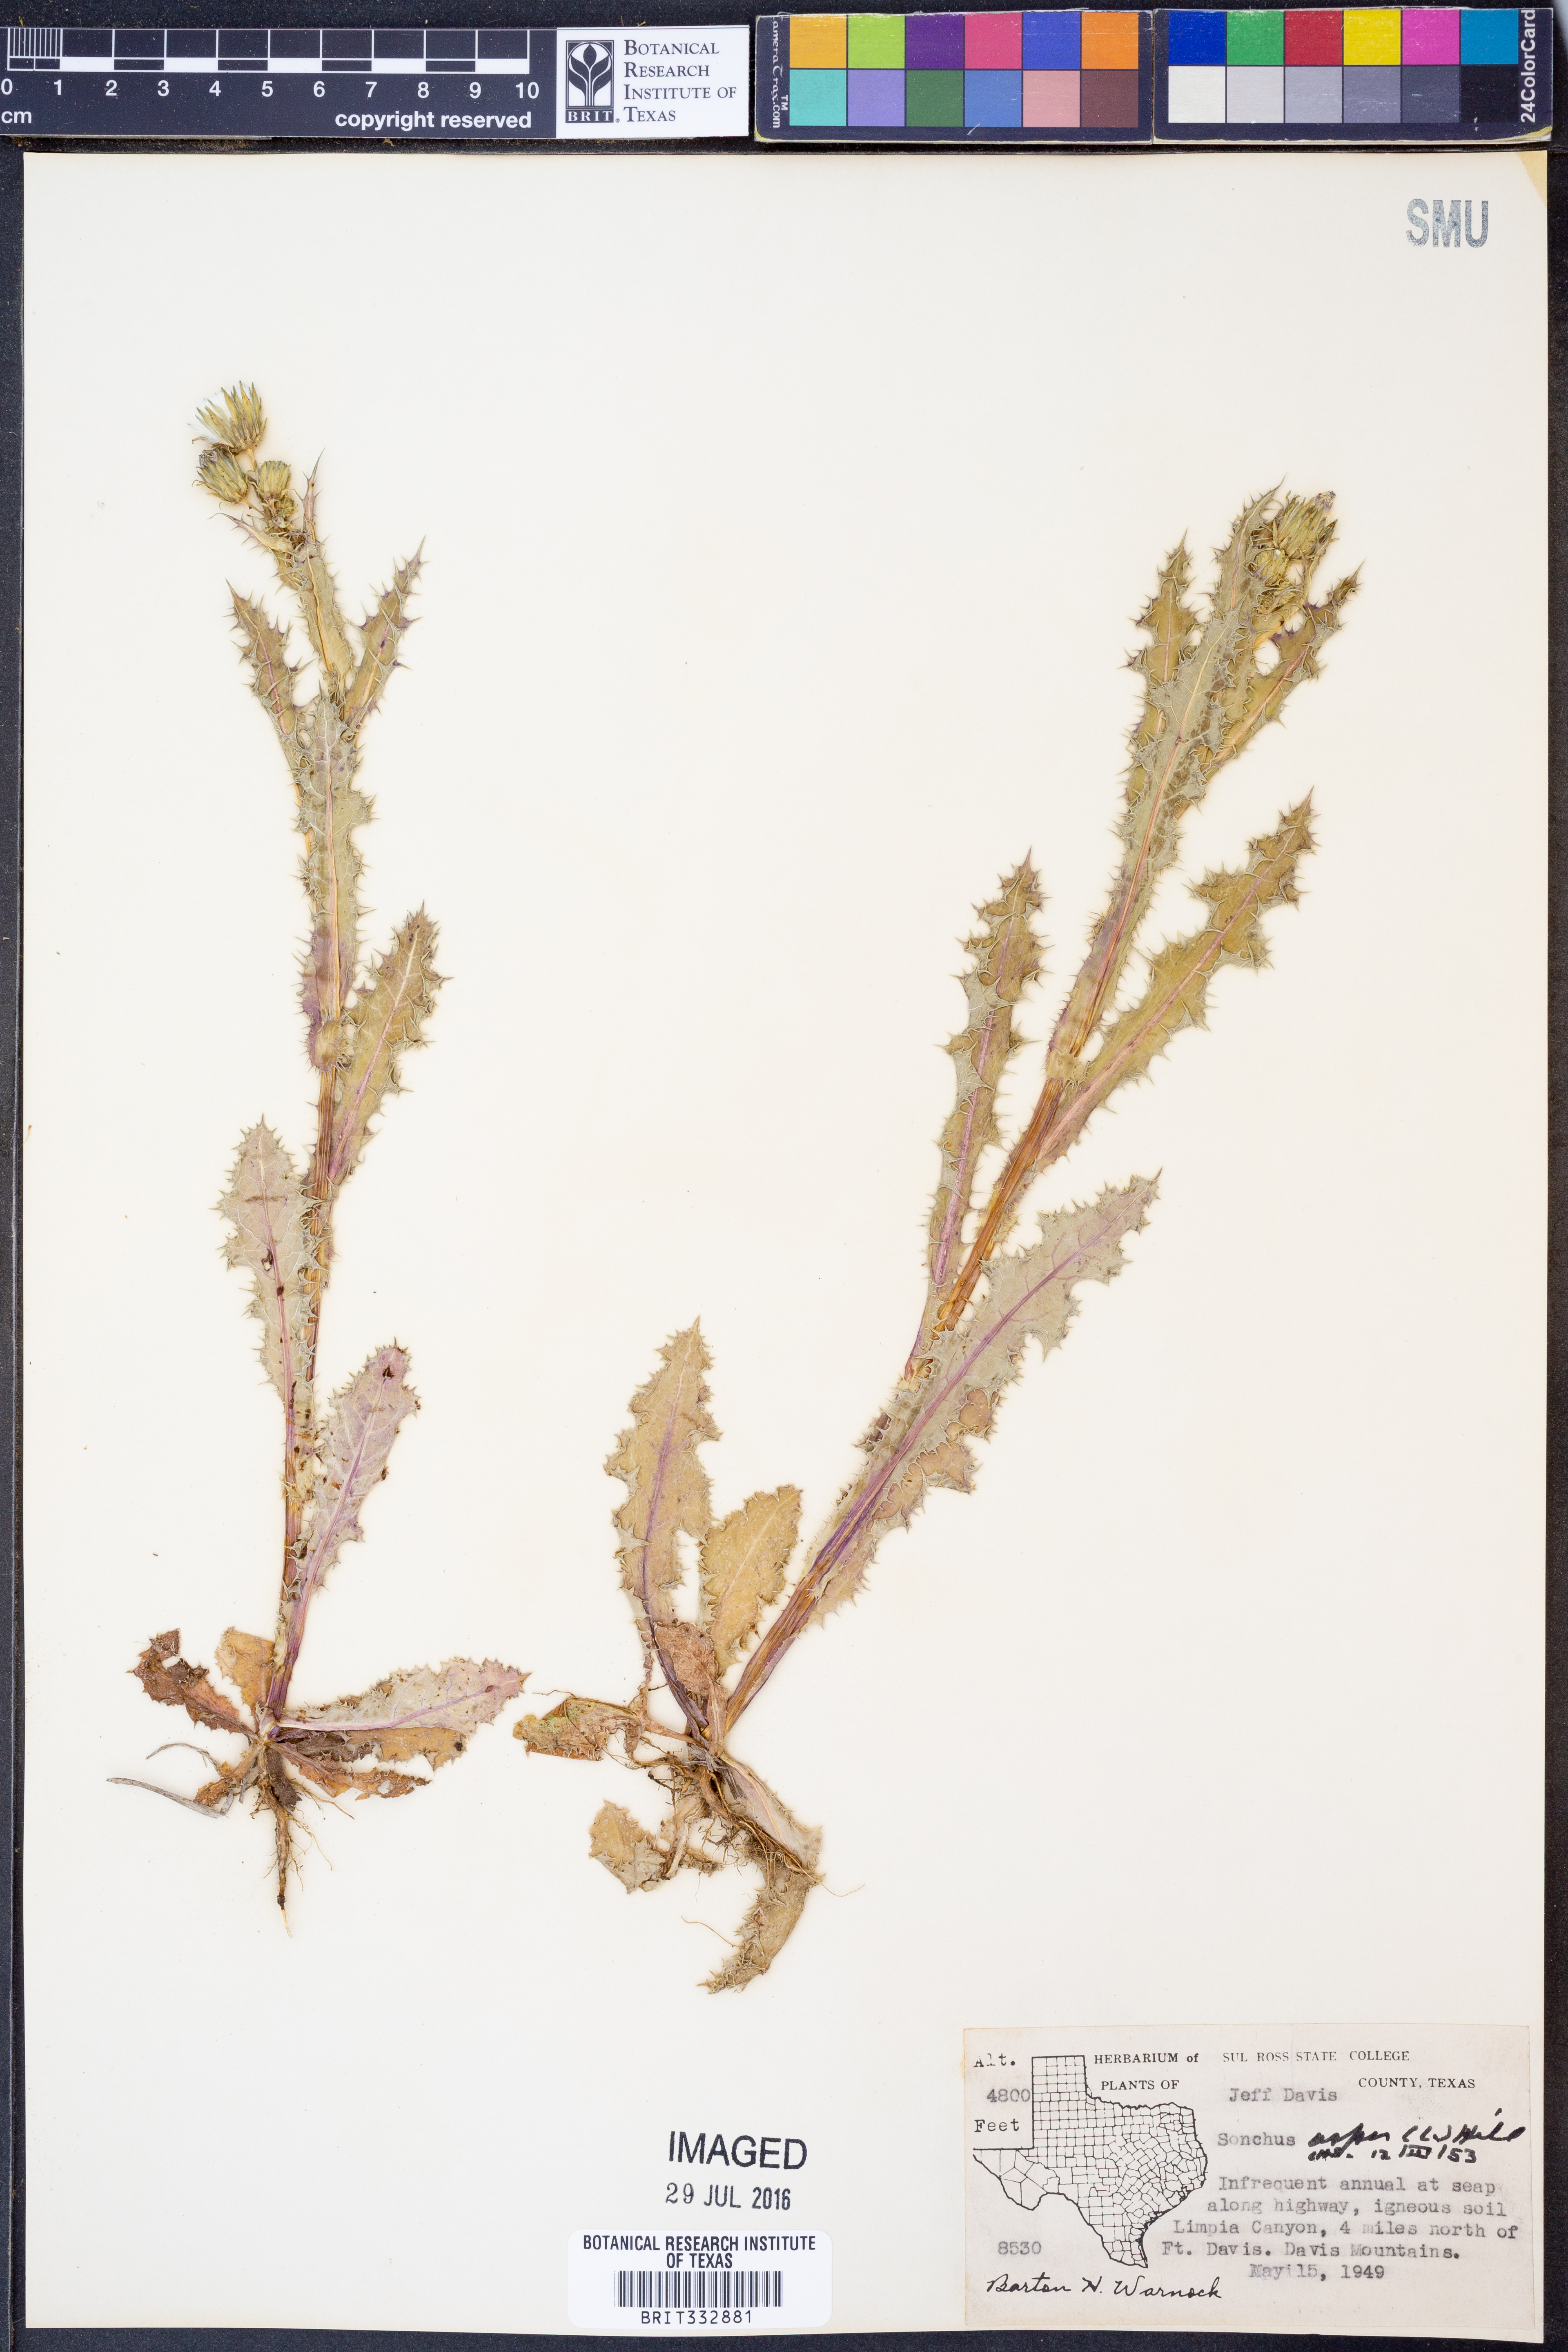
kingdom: Plantae
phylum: Tracheophyta
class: Magnoliopsida
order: Asterales
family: Asteraceae
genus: Sonchus
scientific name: Sonchus asper
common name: Prickly sow-thistle
